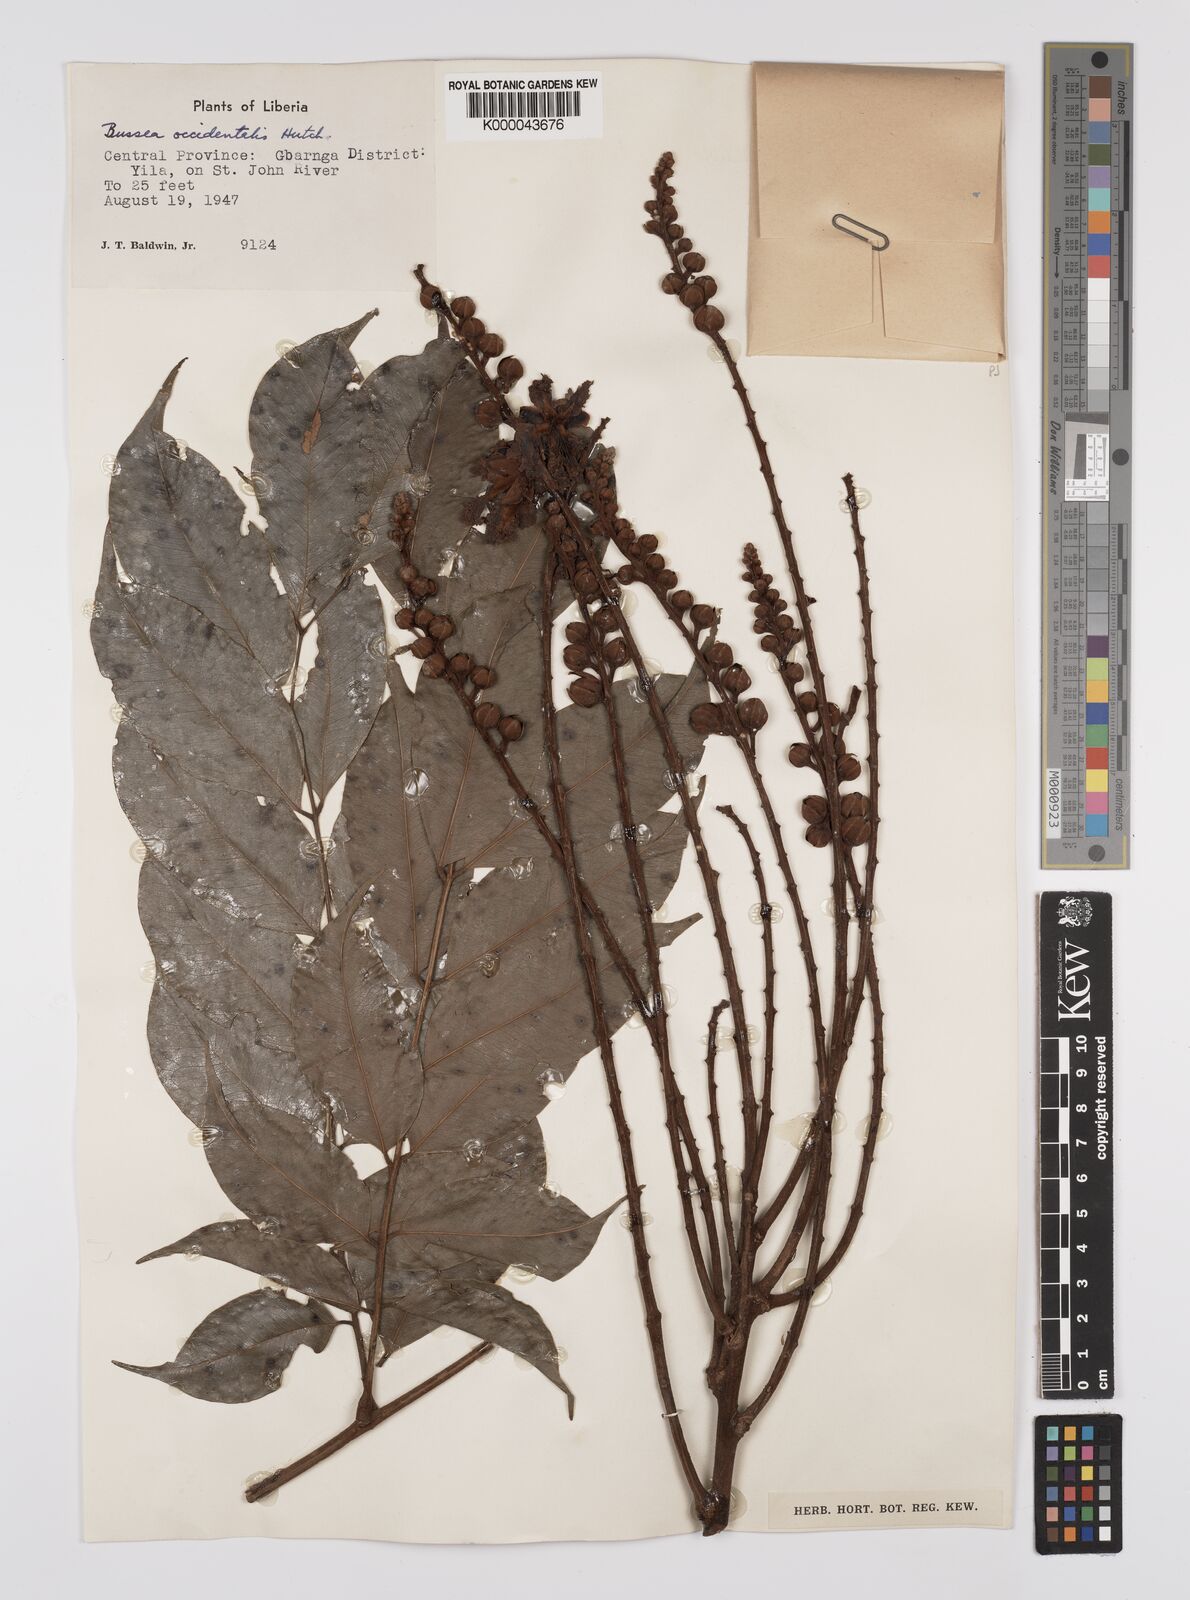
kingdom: Plantae
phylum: Tracheophyta
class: Magnoliopsida
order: Fabales
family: Fabaceae
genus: Bussea
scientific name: Bussea occidentalis
